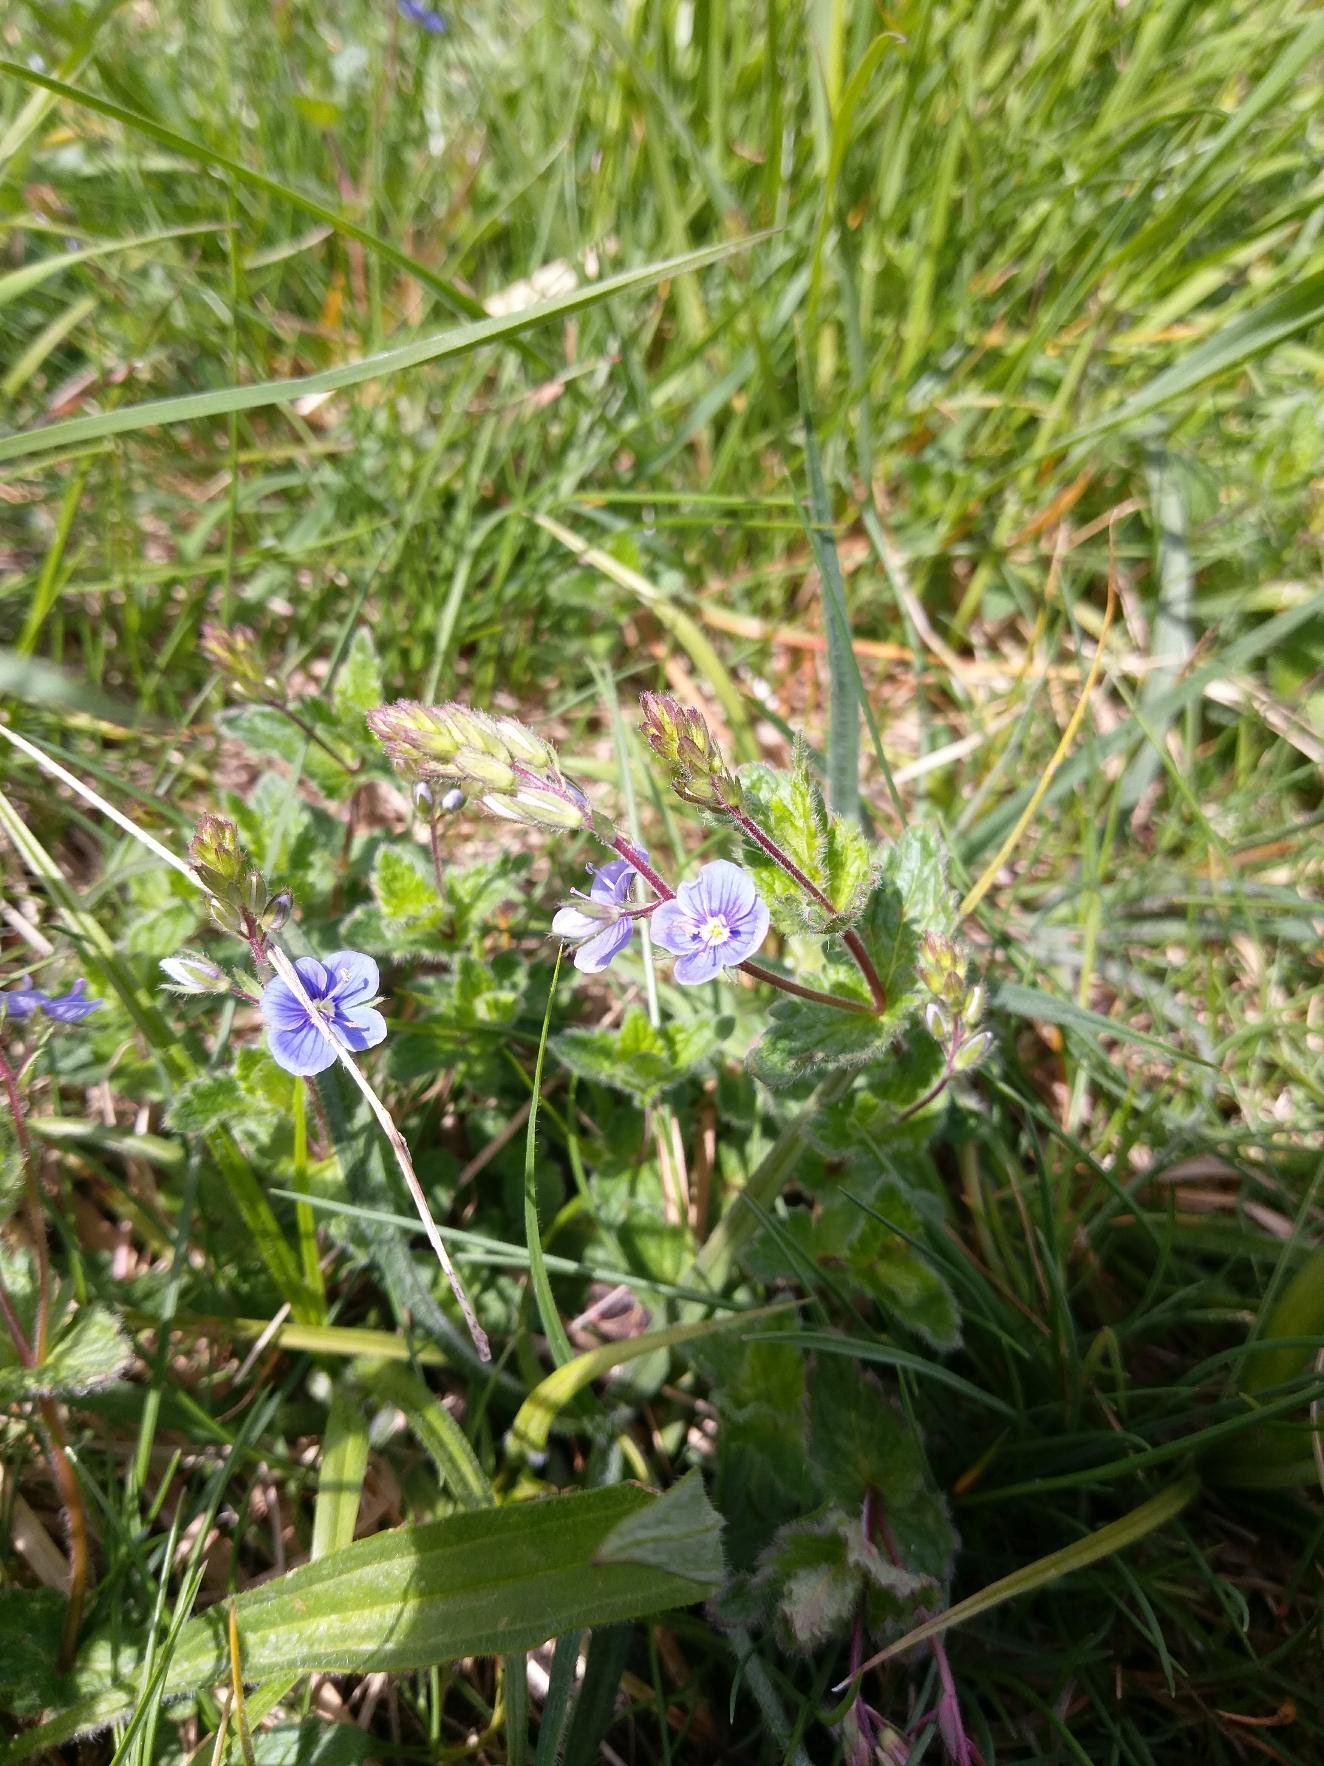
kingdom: Plantae
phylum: Tracheophyta
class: Magnoliopsida
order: Lamiales
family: Plantaginaceae
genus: Veronica
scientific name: Veronica chamaedrys
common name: Tveskægget ærenpris
